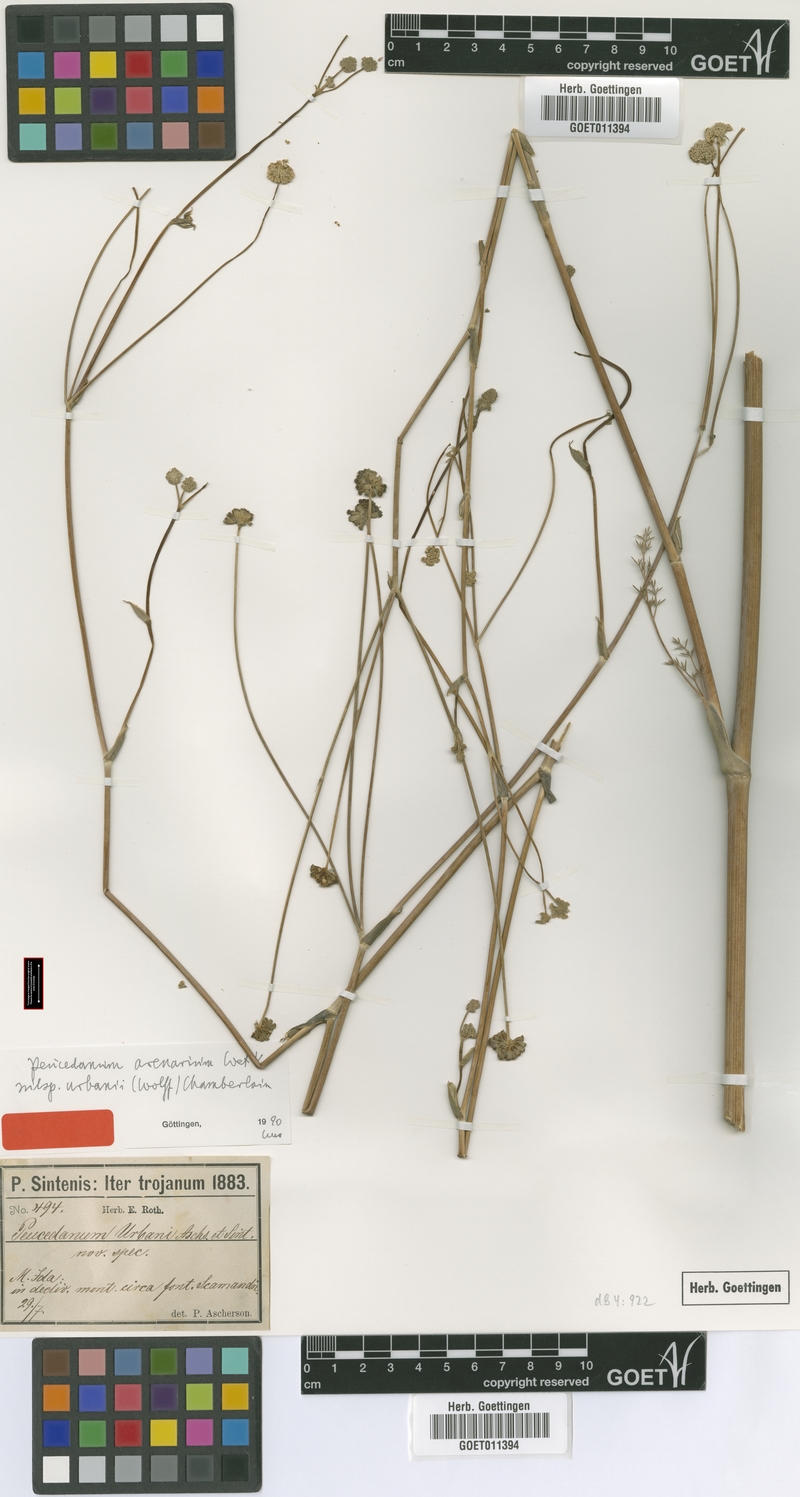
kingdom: Plantae
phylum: Tracheophyta
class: Magnoliopsida
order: Apiales
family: Apiaceae
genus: Taeniopetalum
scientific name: Taeniopetalum urbani
